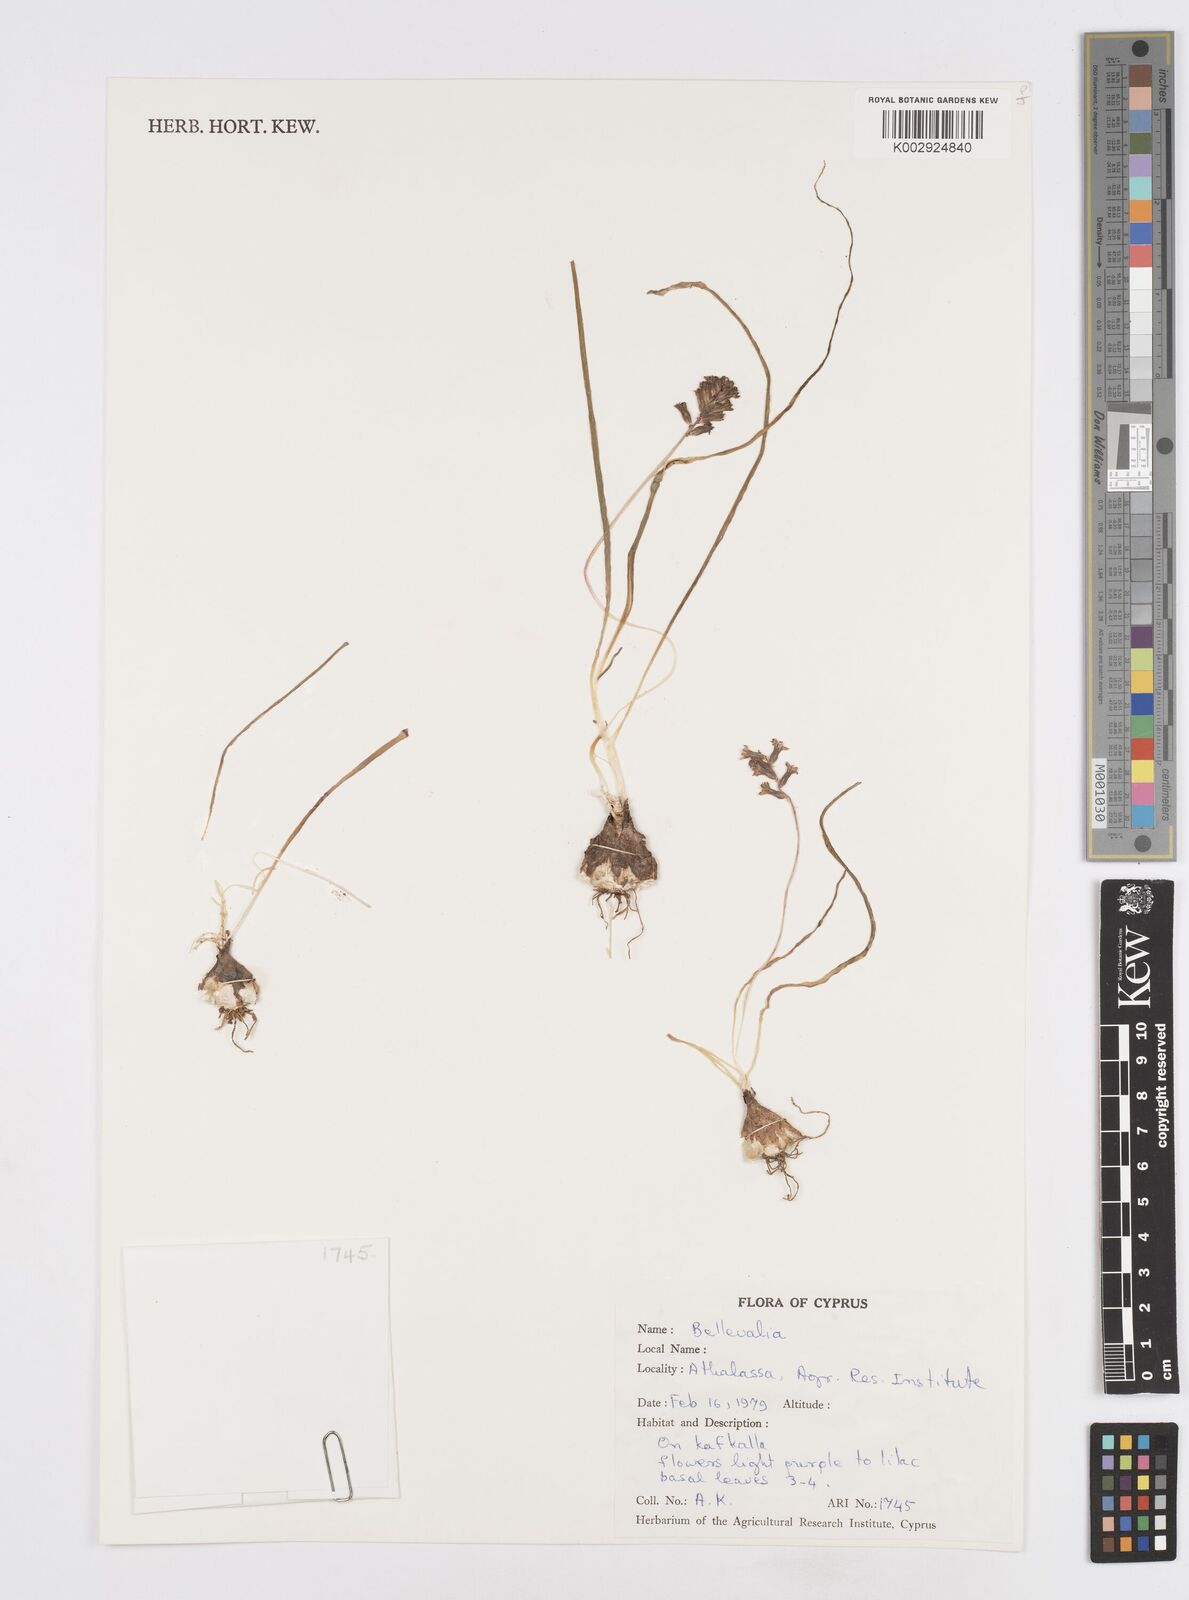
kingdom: Plantae
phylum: Tracheophyta
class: Liliopsida
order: Asparagales
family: Asparagaceae
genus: Bellevalia
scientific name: Bellevalia
